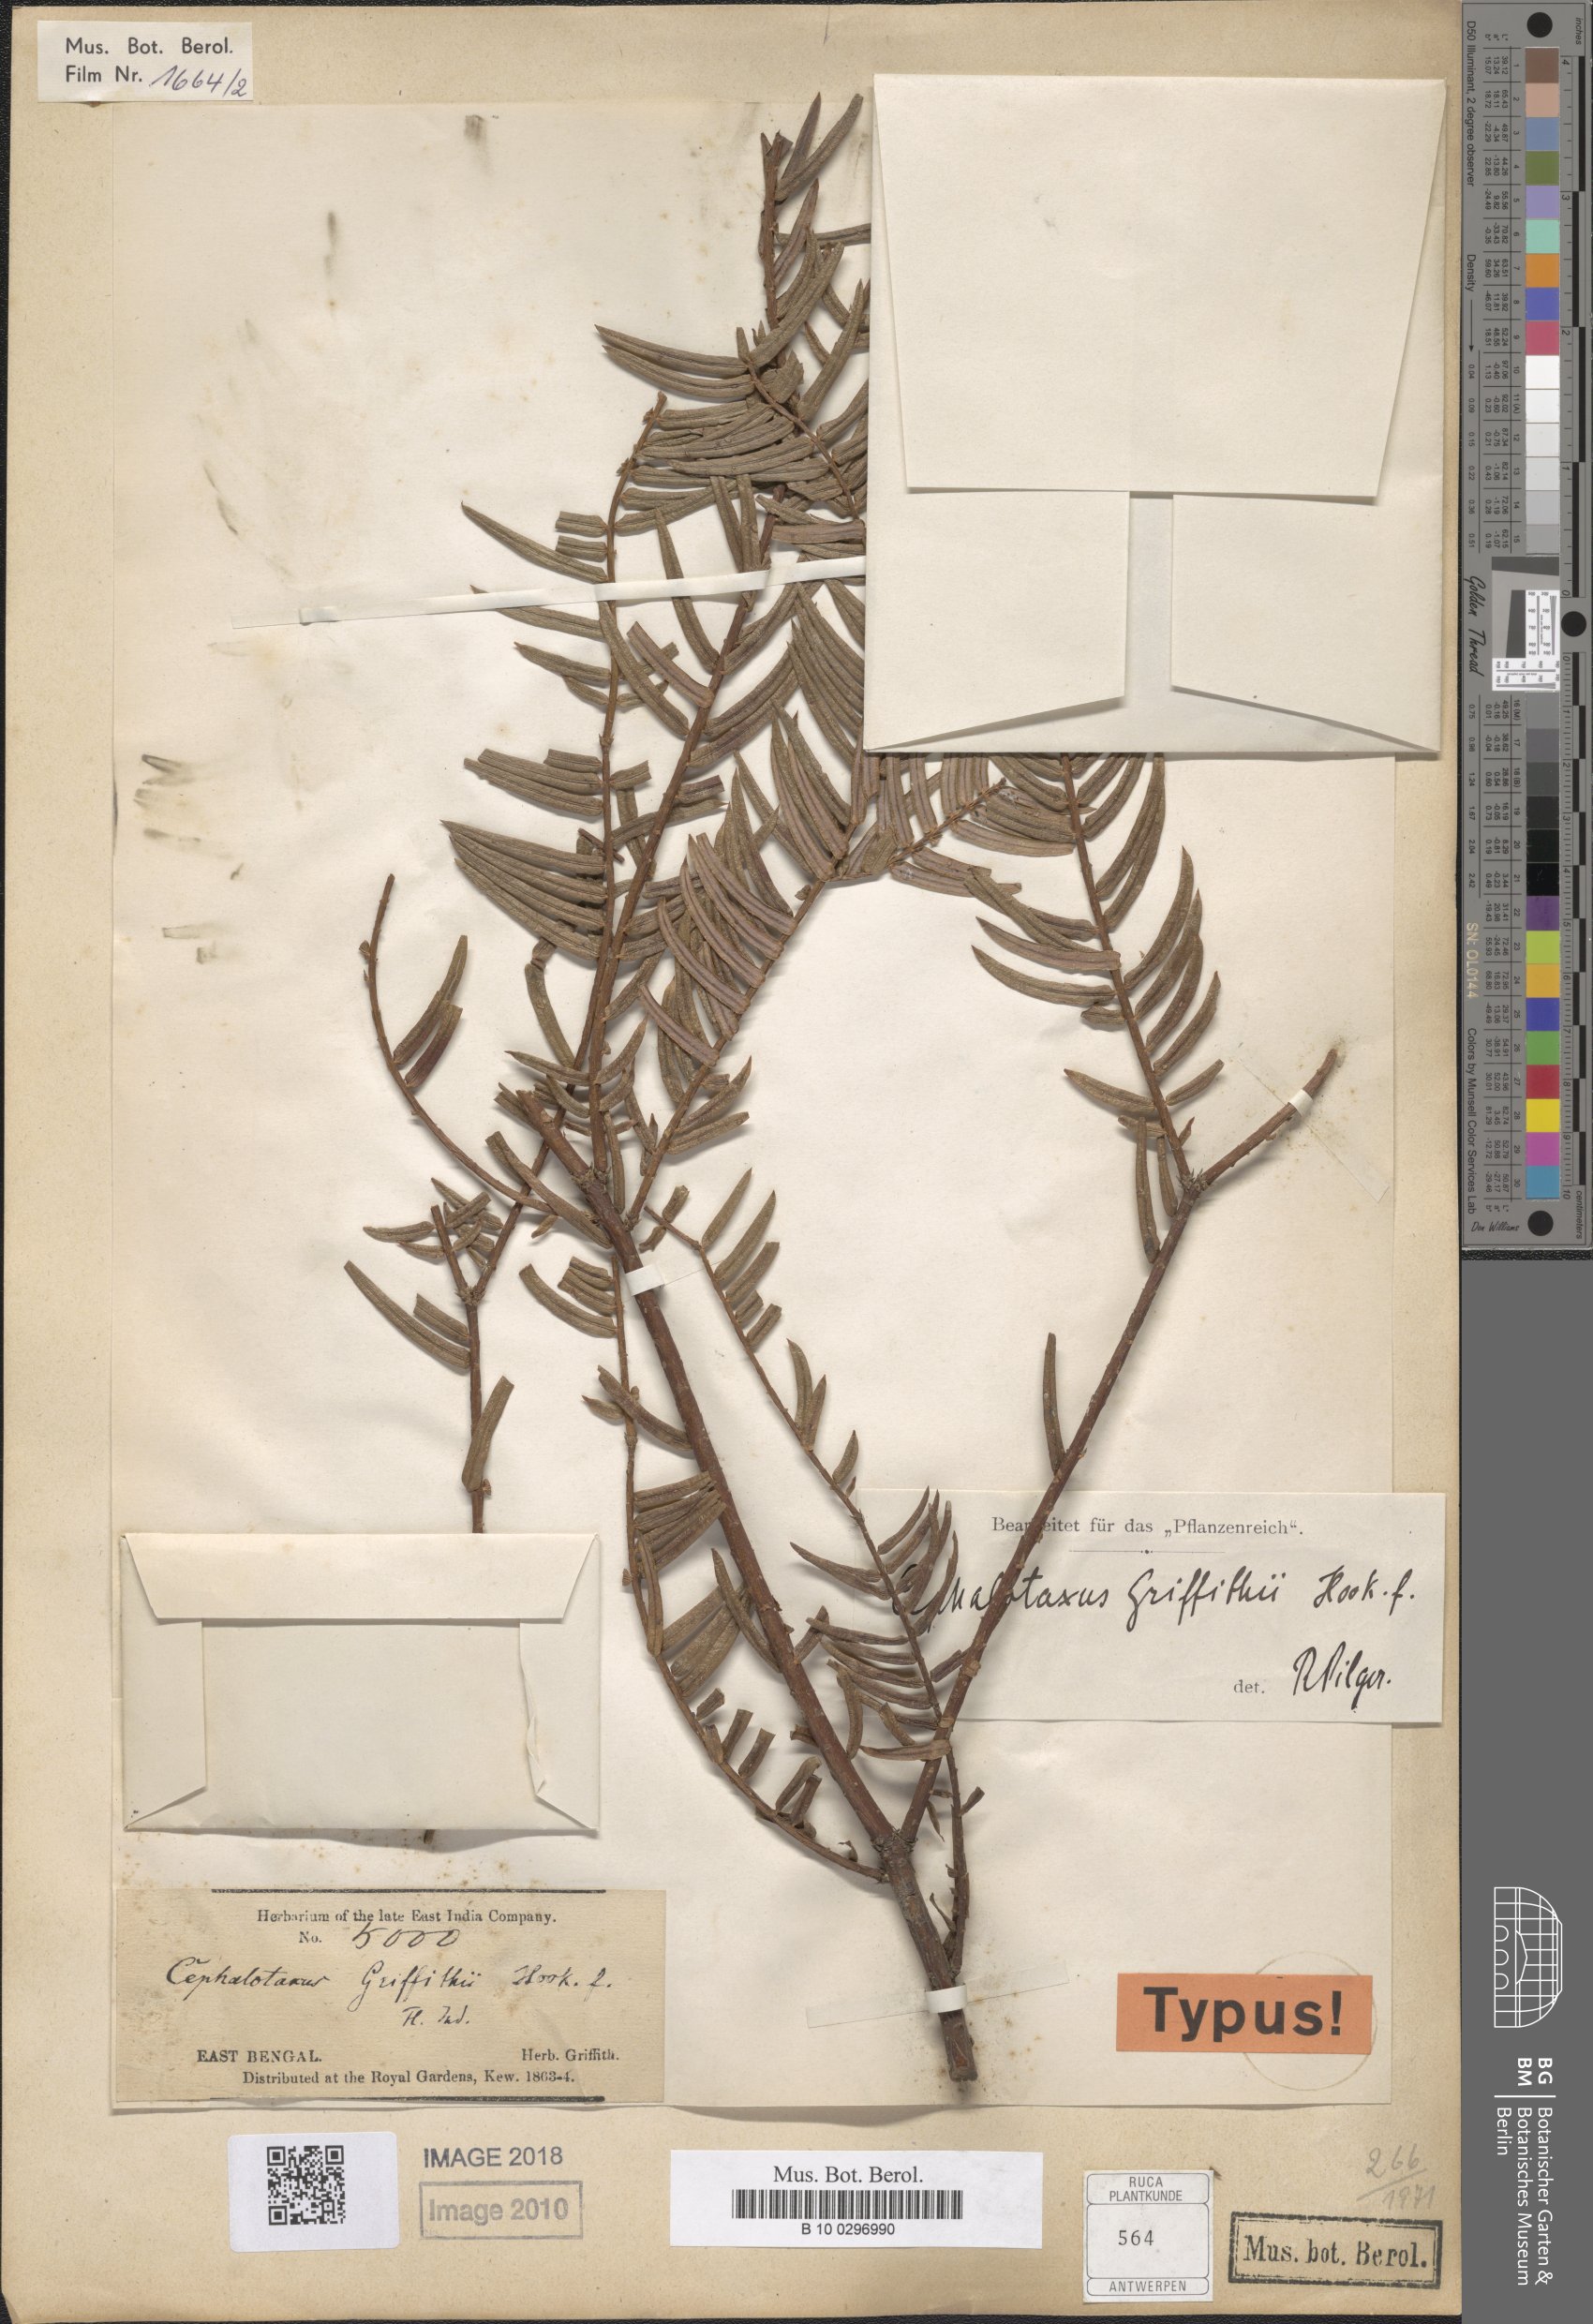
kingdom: Plantae
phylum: Tracheophyta
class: Pinopsida
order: Pinales
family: Cephalotaxaceae
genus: Cephalotaxus
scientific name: Cephalotaxus mannii
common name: Mann's yew plum
